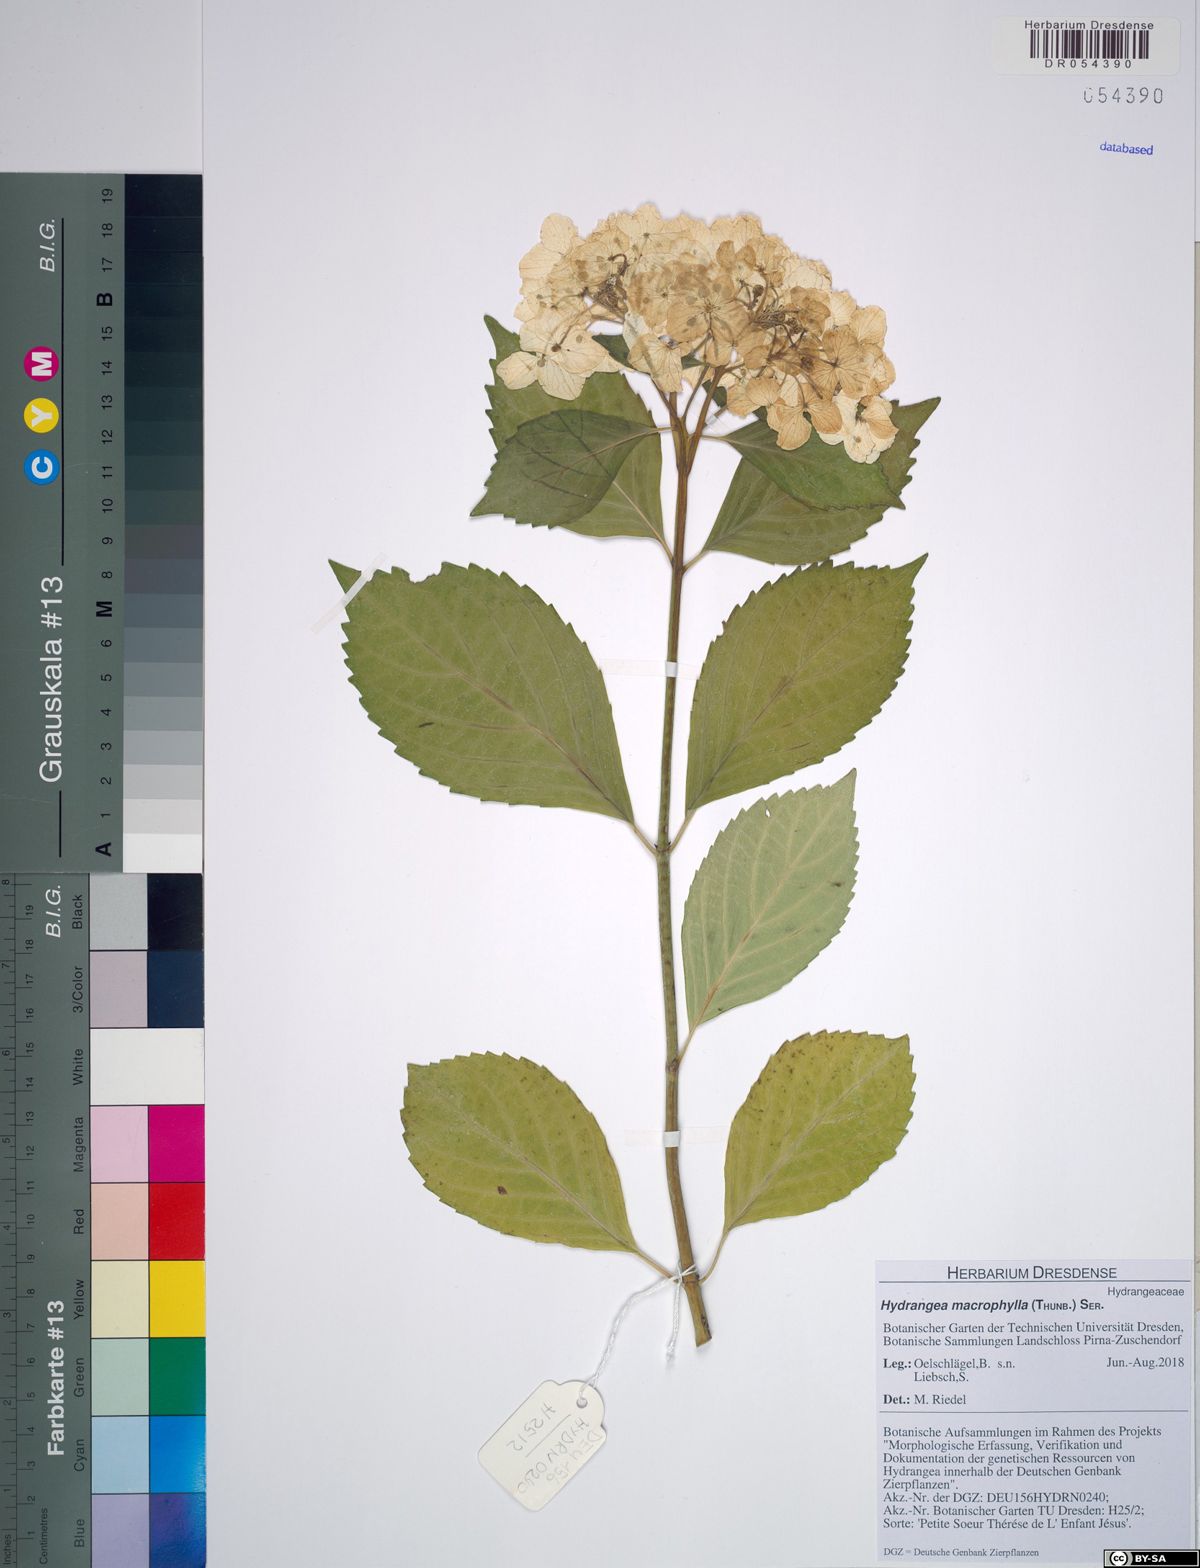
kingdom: Plantae
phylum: Tracheophyta
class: Magnoliopsida
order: Cornales
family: Hydrangeaceae
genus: Hydrangea
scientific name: Hydrangea macrophylla
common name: Hydrangea
